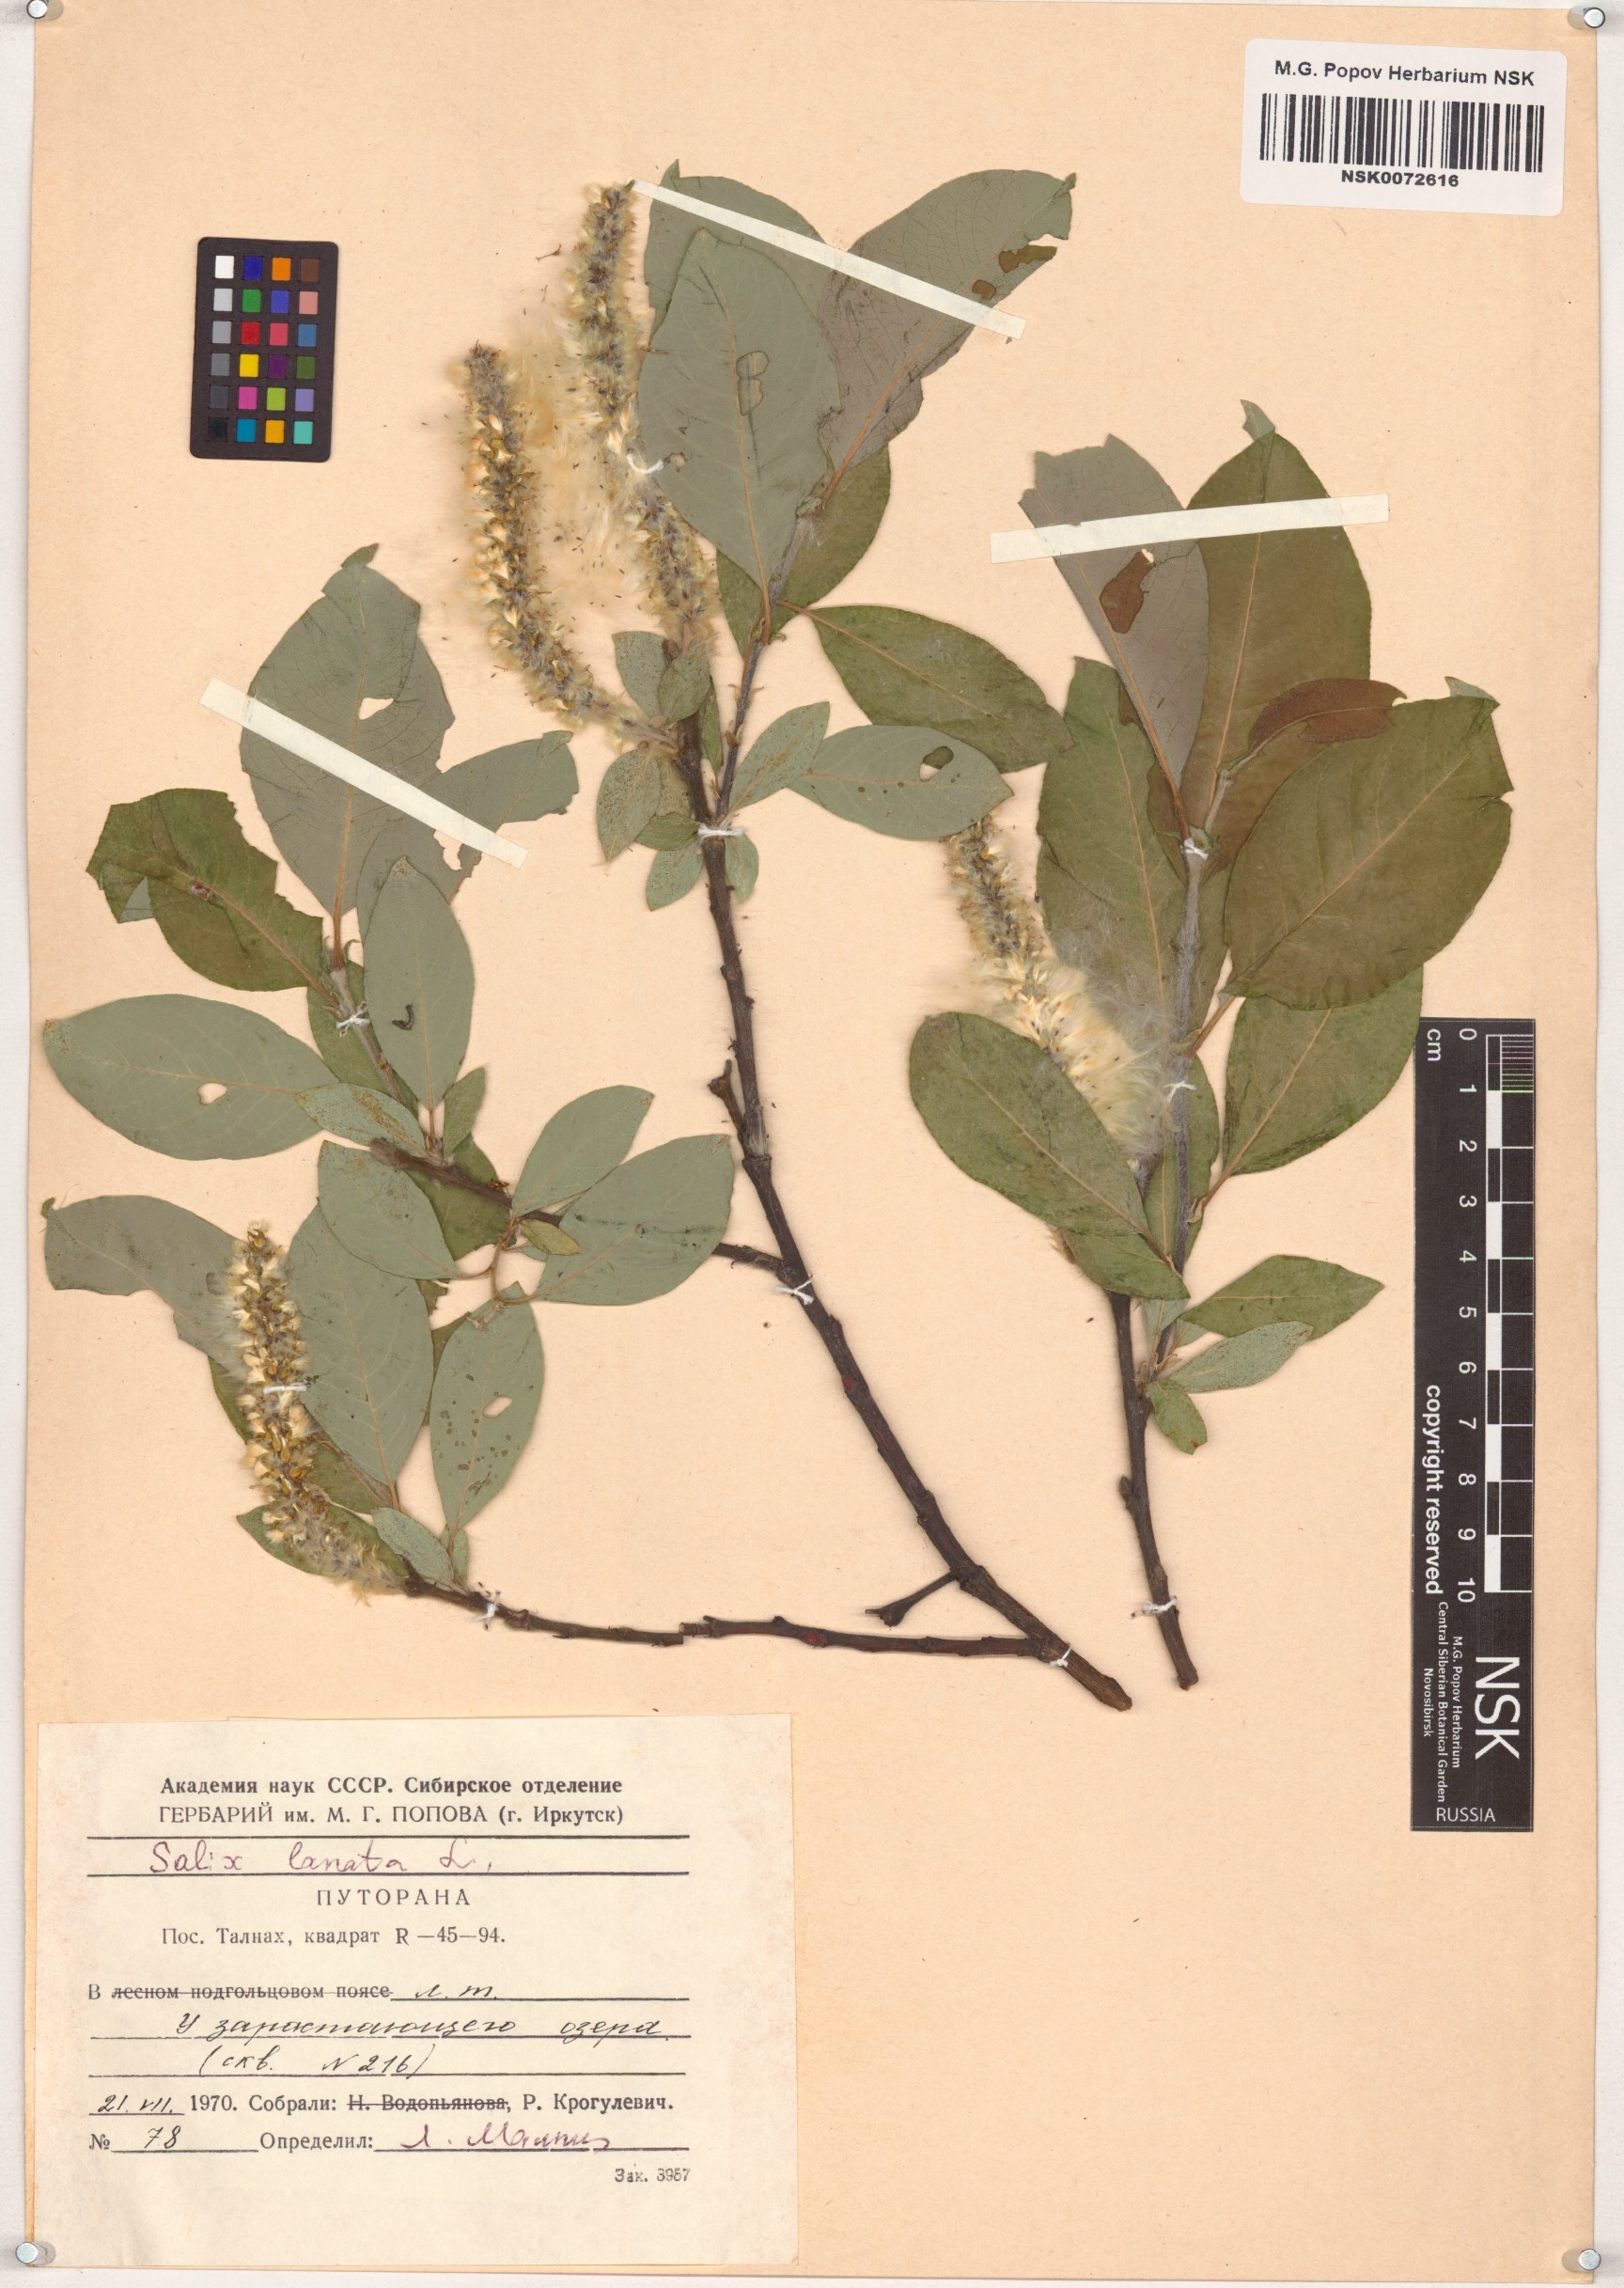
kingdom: Plantae
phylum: Tracheophyta
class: Magnoliopsida
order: Malpighiales
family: Salicaceae
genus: Salix
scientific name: Salix lanata
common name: Woolly willow
